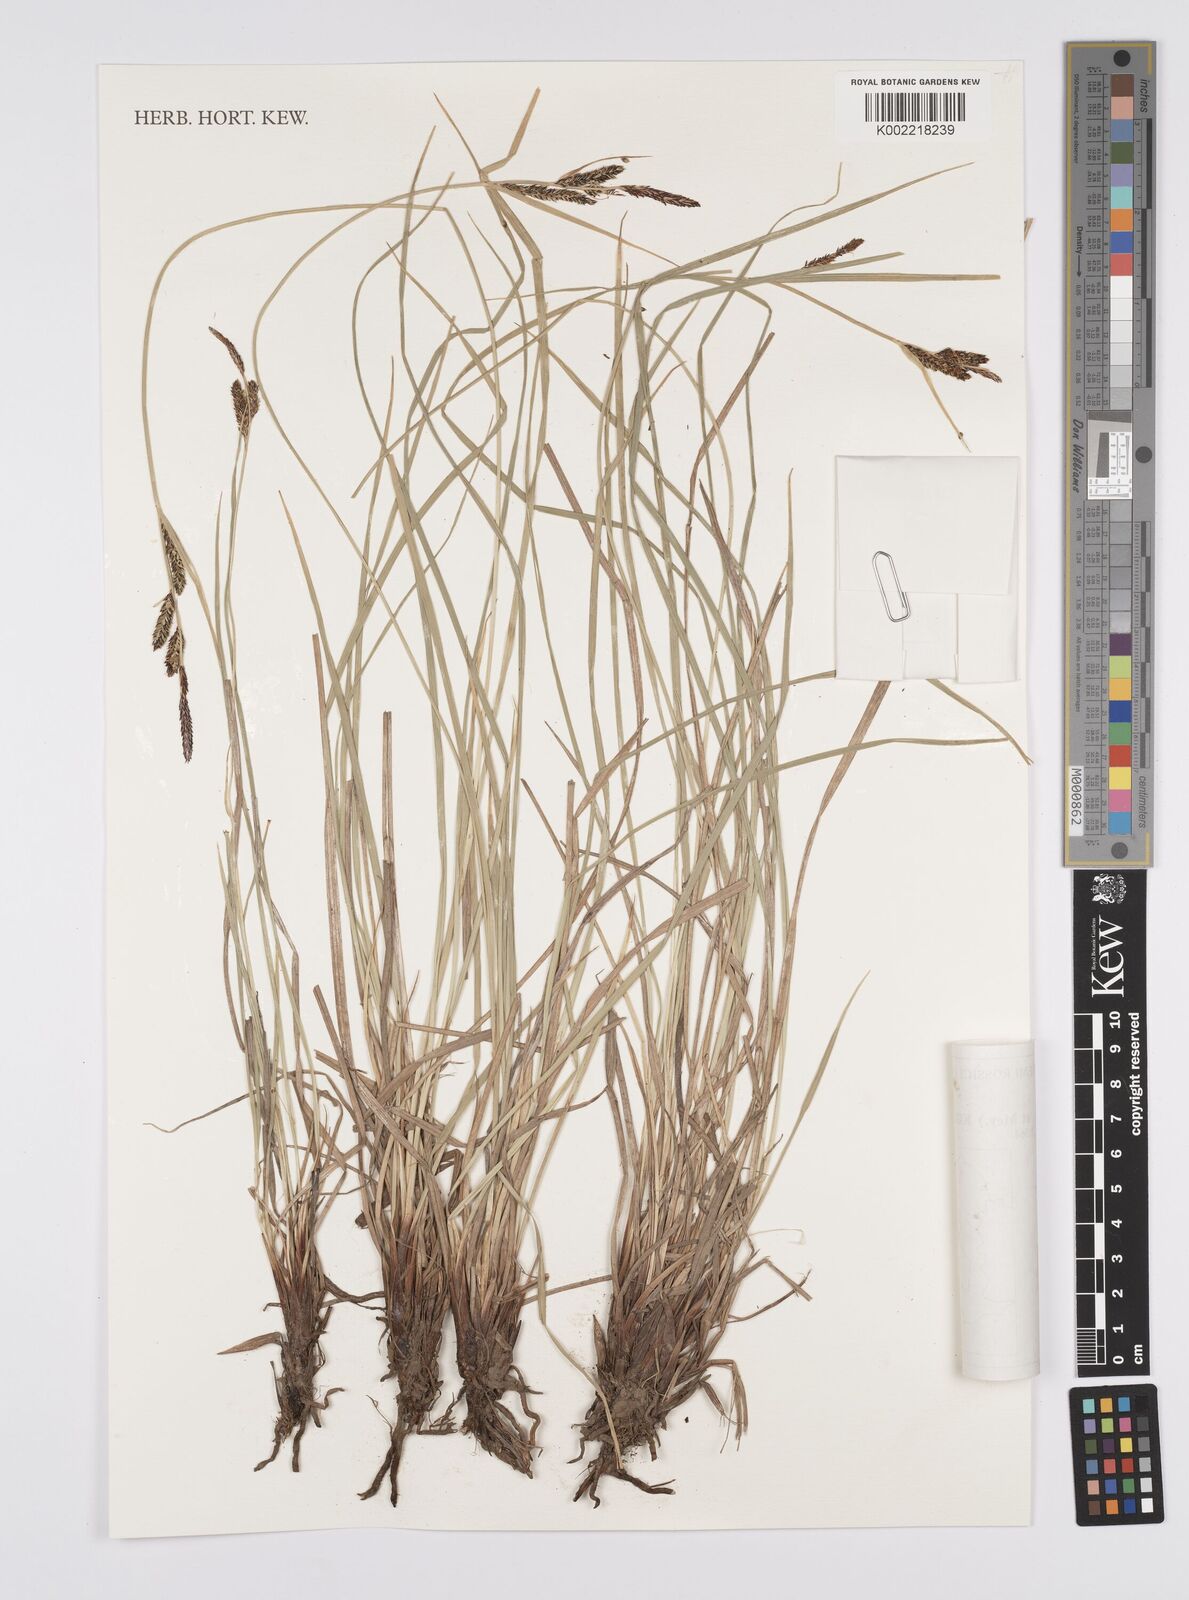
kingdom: Plantae
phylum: Tracheophyta
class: Liliopsida
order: Poales
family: Cyperaceae
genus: Carex
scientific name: Carex appendiculata
